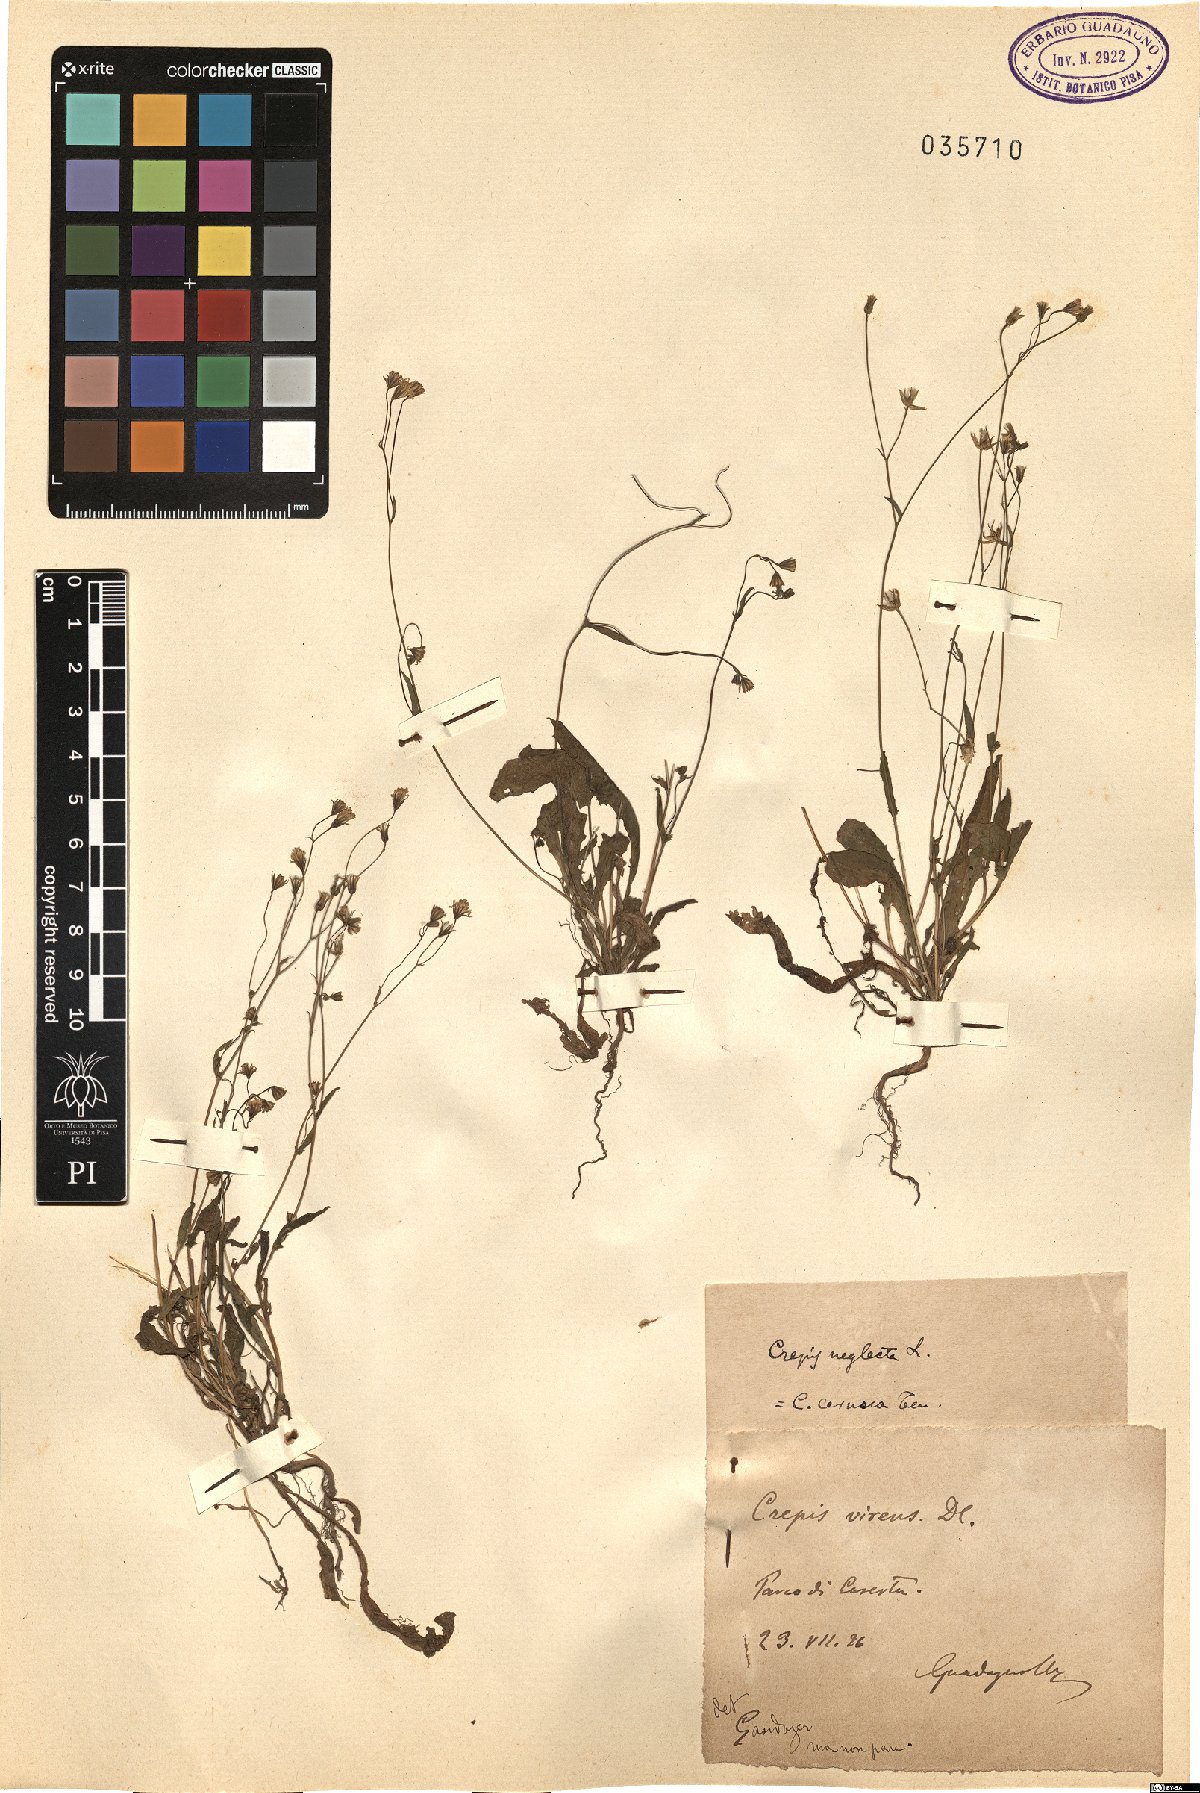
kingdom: Plantae
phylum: Tracheophyta
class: Magnoliopsida
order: Asterales
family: Asteraceae
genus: Crepis
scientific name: Crepis capillaris
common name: Smooth hawksbeard
